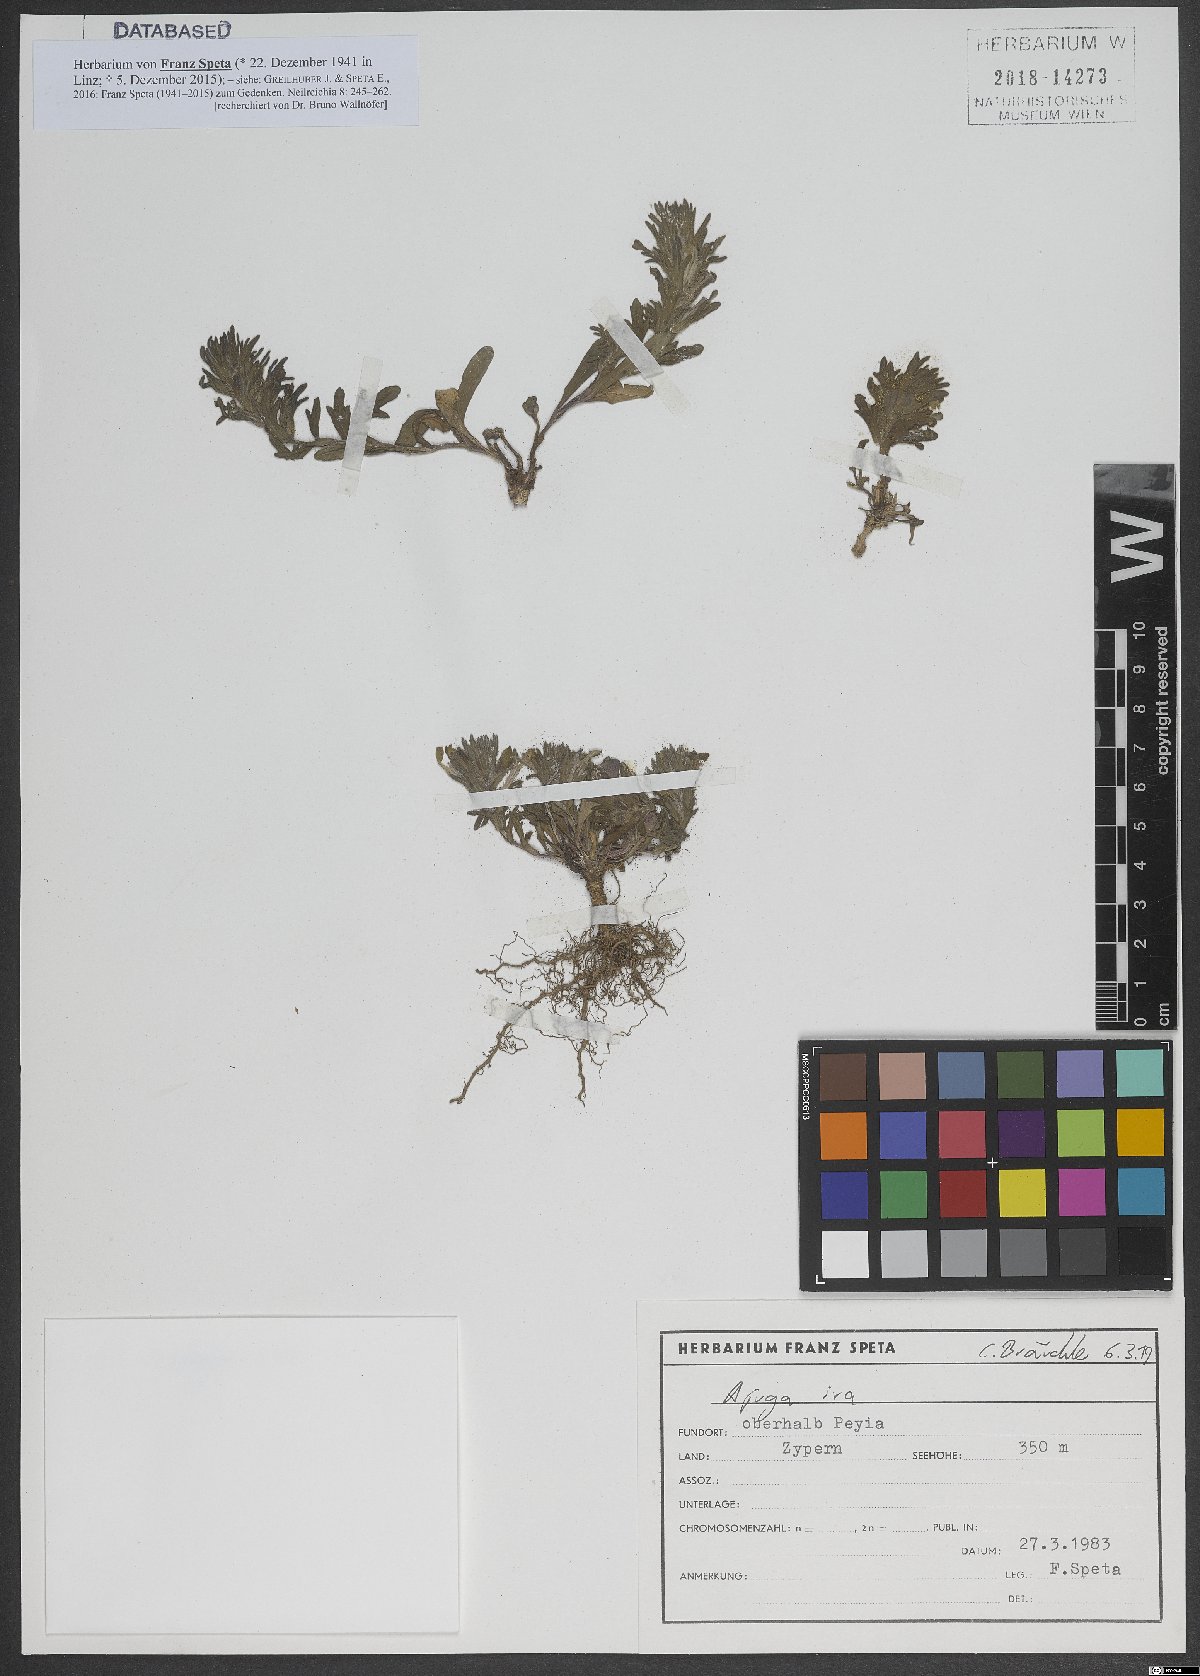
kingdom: Plantae
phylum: Tracheophyta
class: Magnoliopsida
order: Lamiales
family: Lamiaceae
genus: Ajuga
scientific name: Ajuga iva
